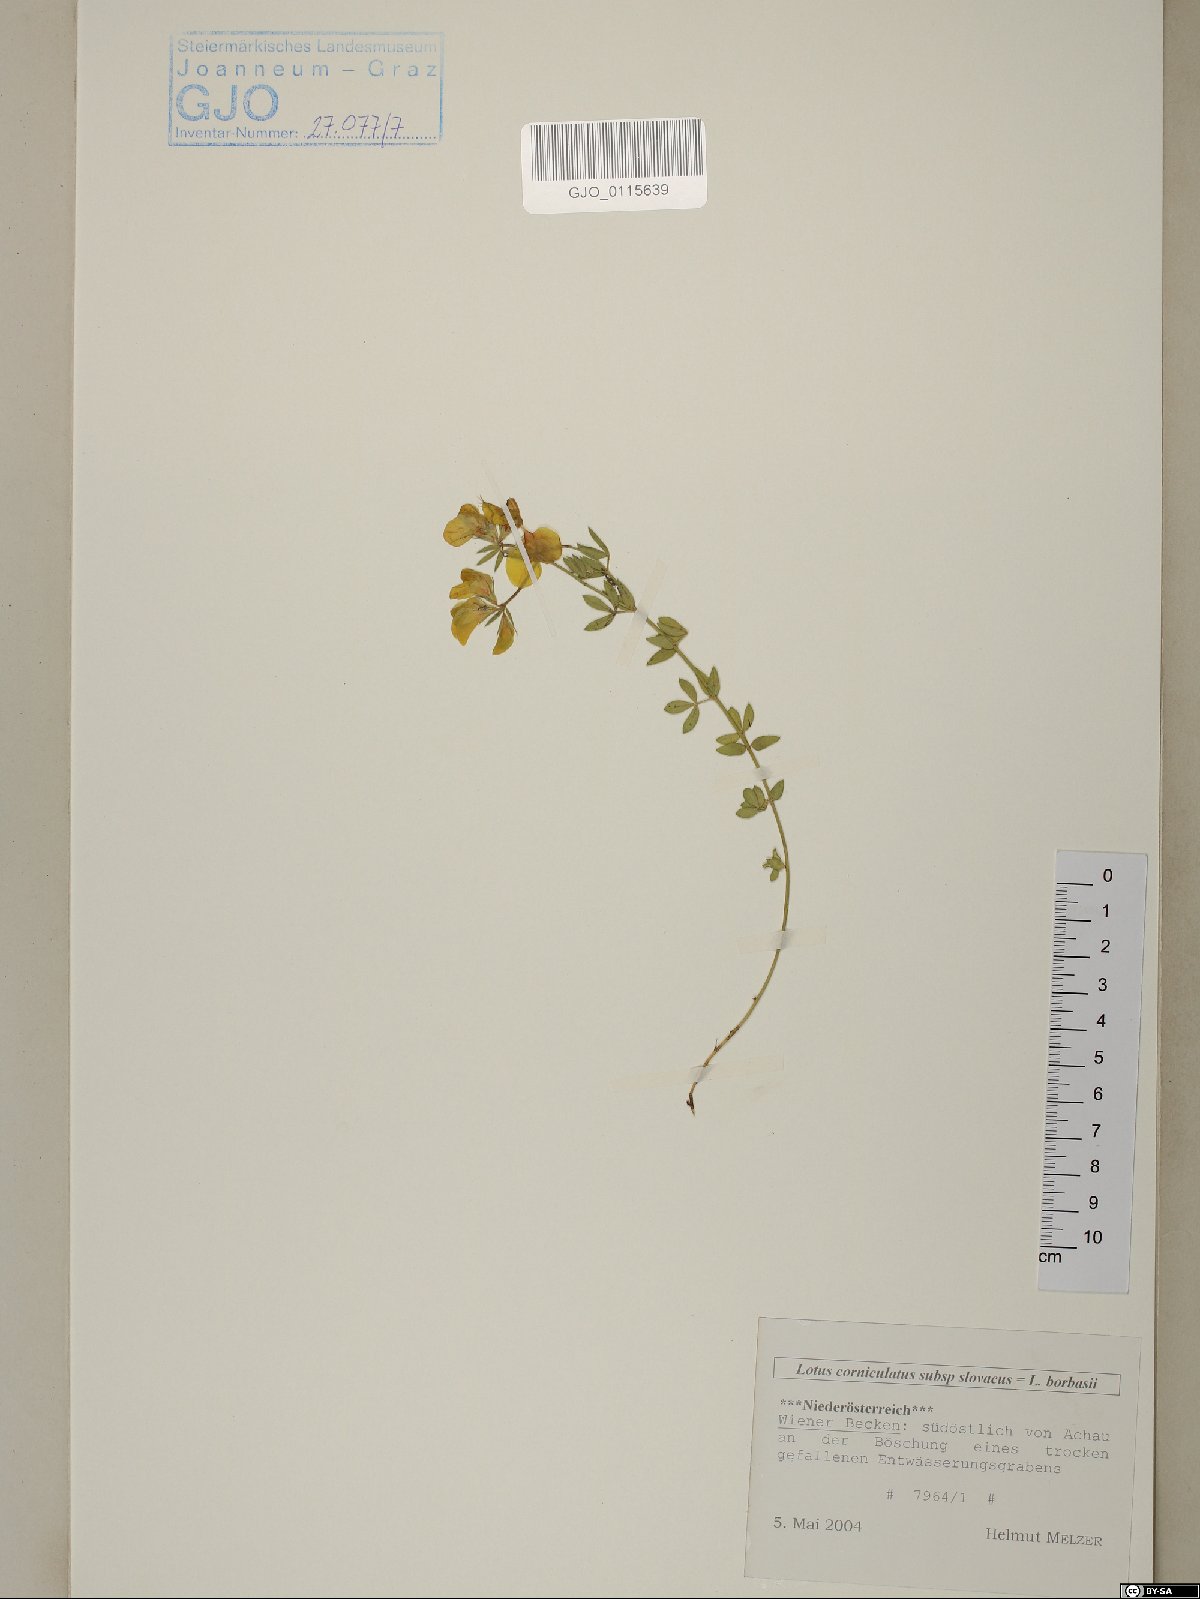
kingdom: Plantae
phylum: Tracheophyta
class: Magnoliopsida
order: Fabales
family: Fabaceae
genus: Lotus
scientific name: Lotus borbasii
